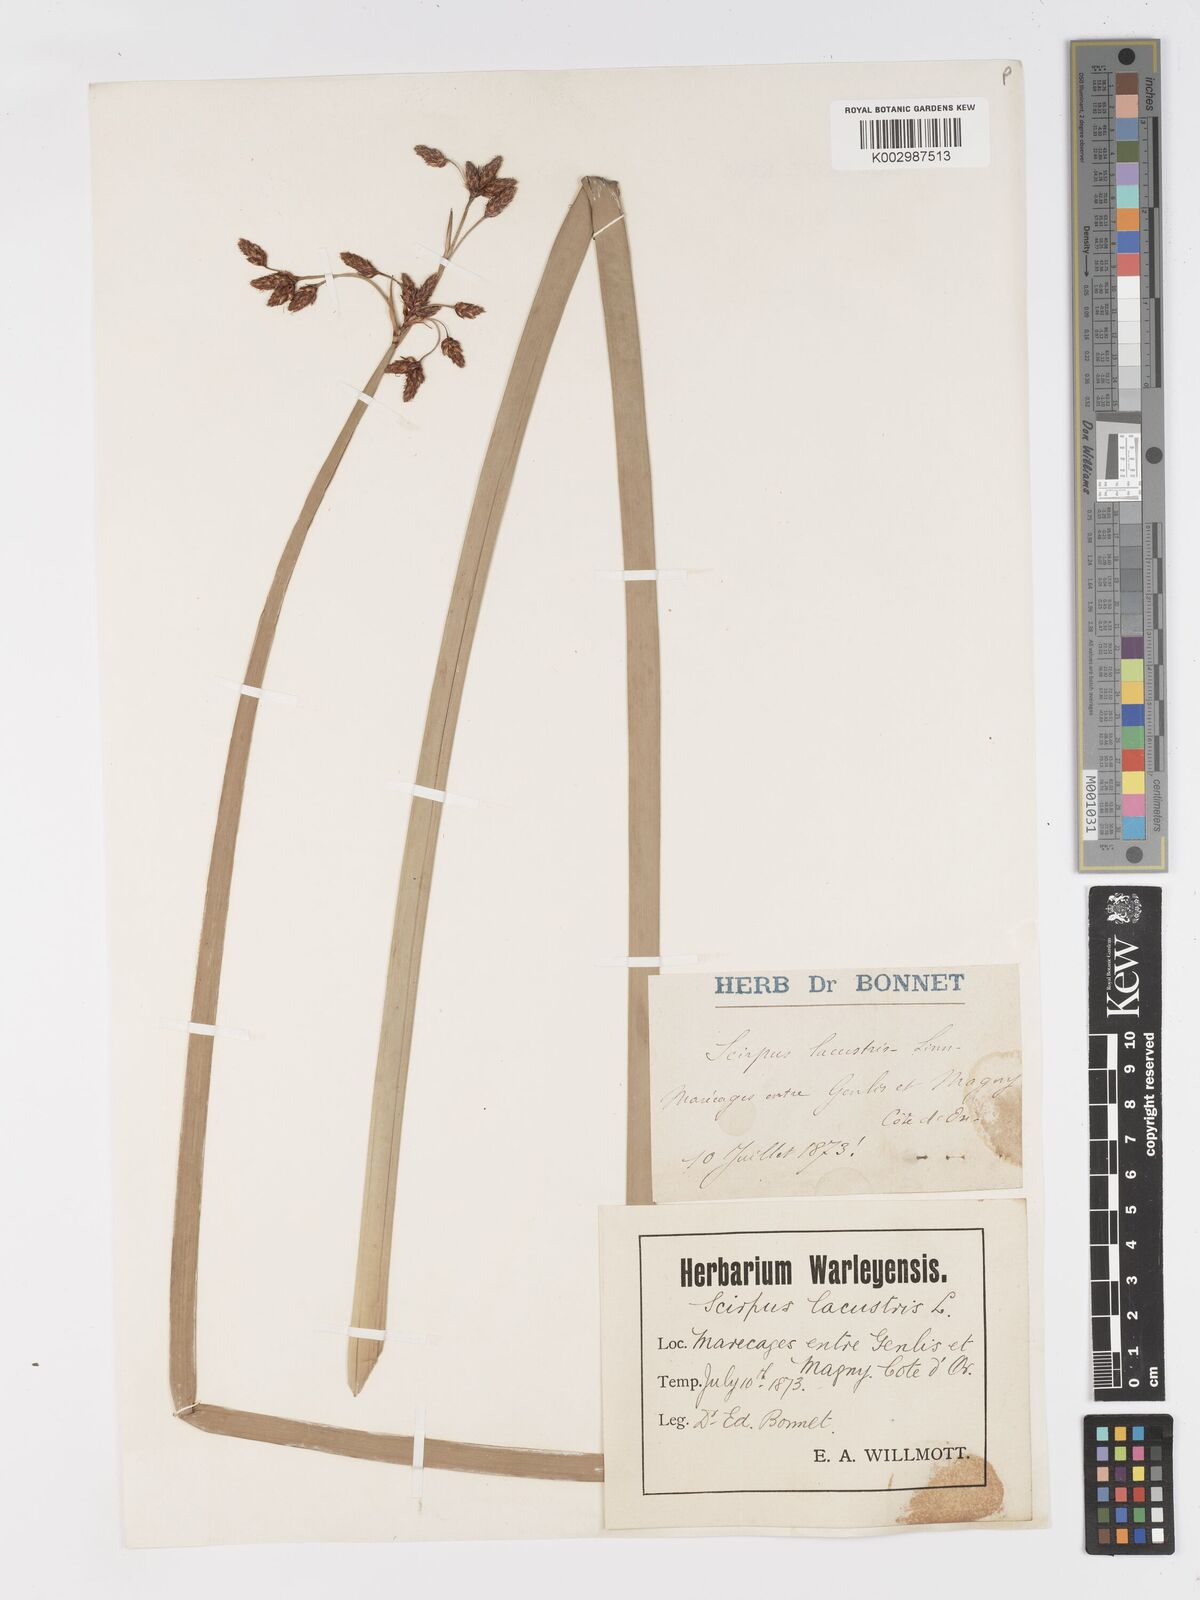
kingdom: Plantae
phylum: Tracheophyta
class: Liliopsida
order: Poales
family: Cyperaceae
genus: Schoenoplectus
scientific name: Schoenoplectus lacustris
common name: Common club-rush
